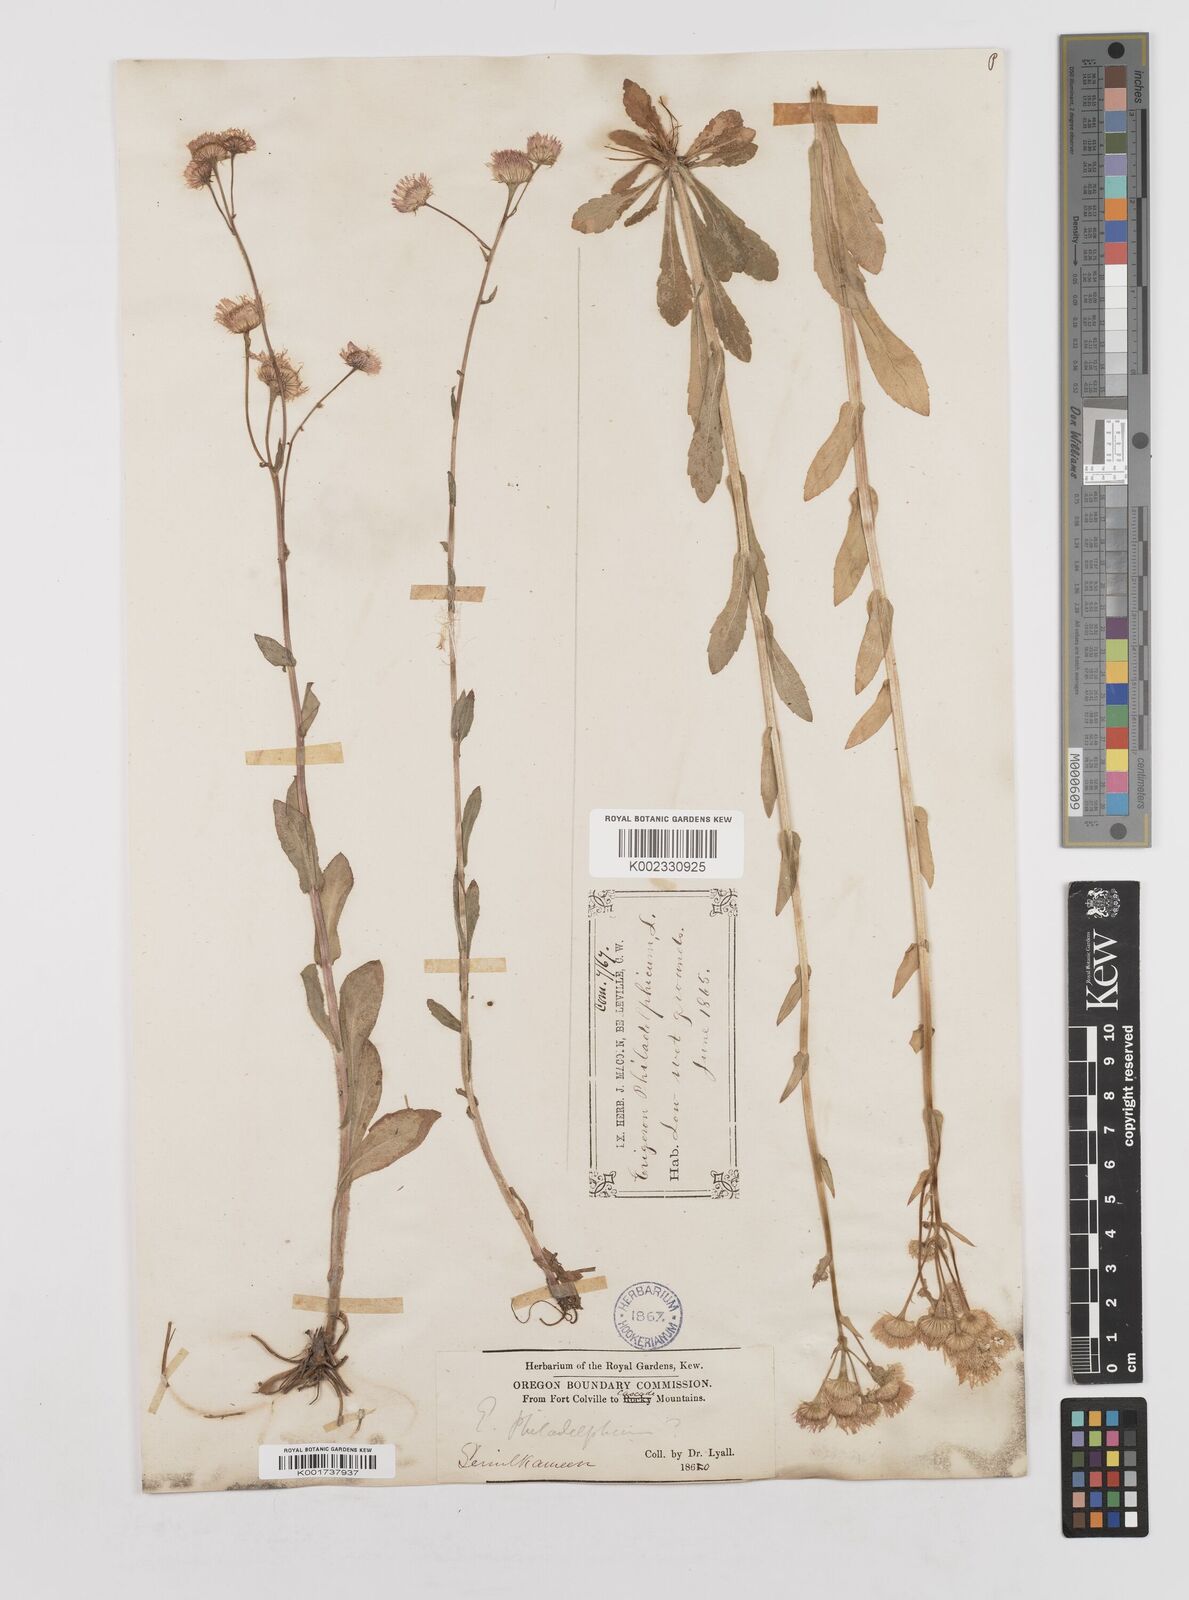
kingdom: Plantae
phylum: Tracheophyta
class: Magnoliopsida
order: Asterales
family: Asteraceae
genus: Erigeron
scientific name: Erigeron philadelphicus
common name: Robin's-plantain
